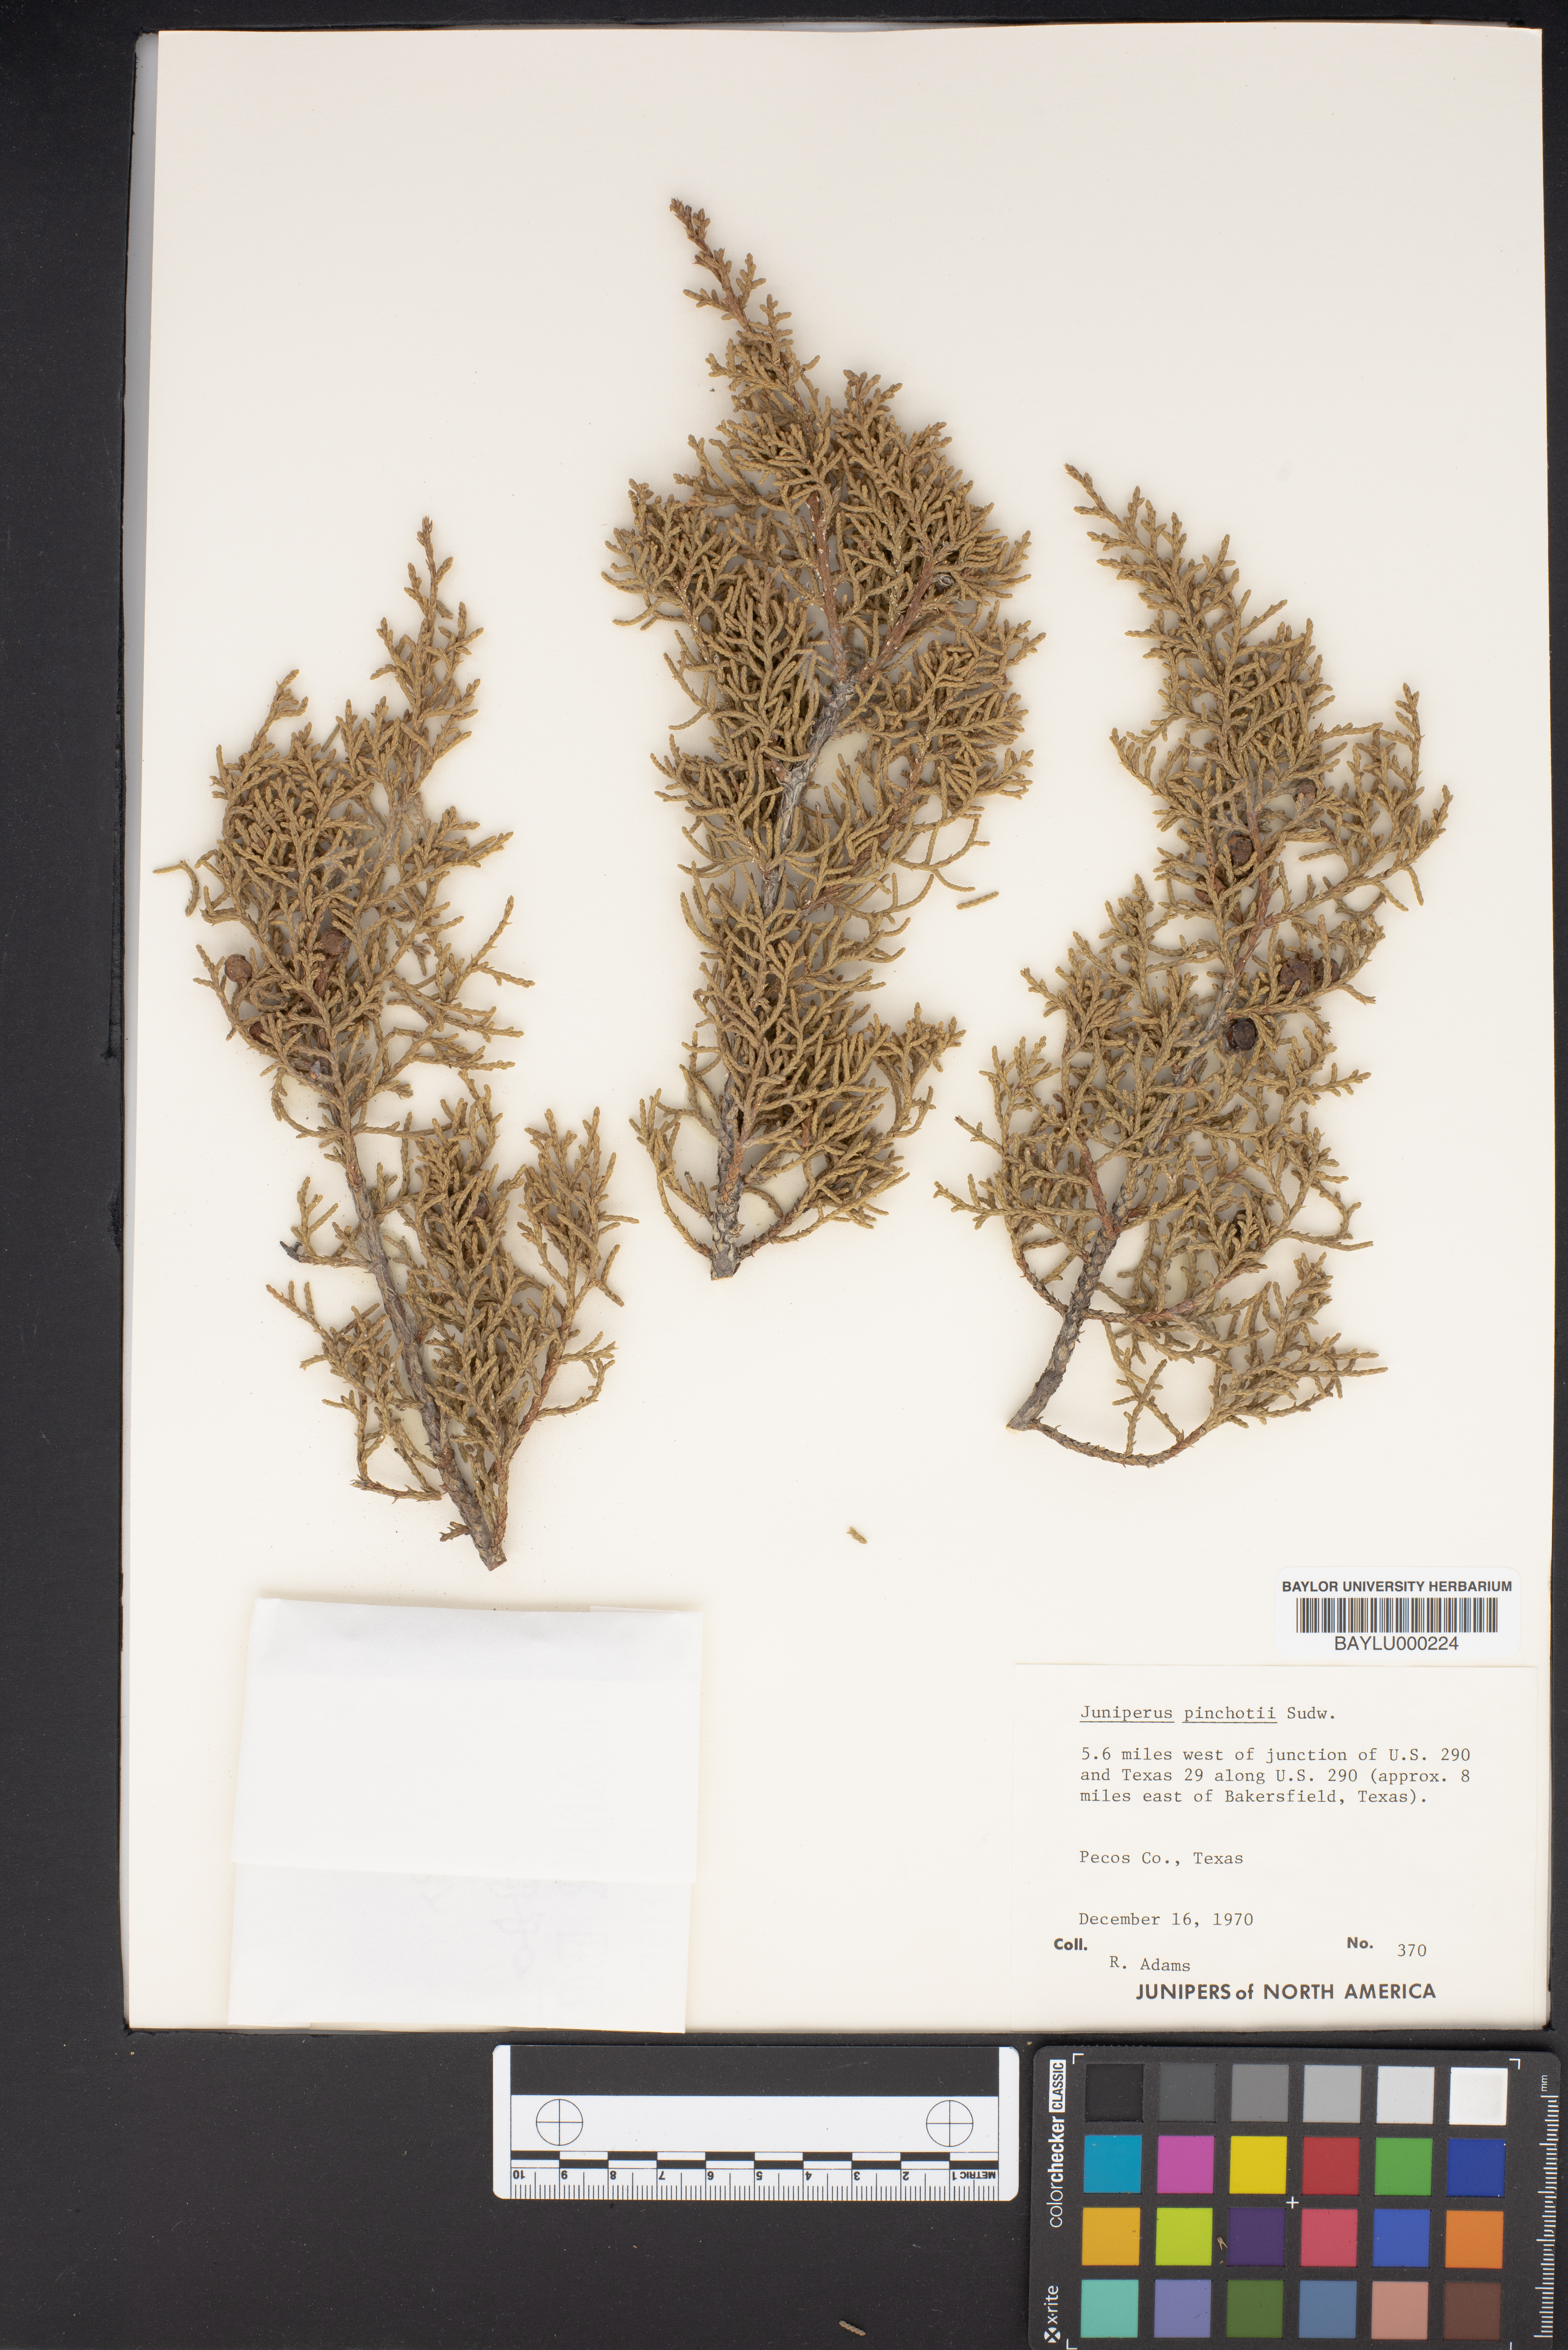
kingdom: Plantae
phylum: Tracheophyta
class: Pinopsida
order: Pinales
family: Cupressaceae
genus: Juniperus
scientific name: Juniperus pinchotii
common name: Pinchot juniper
